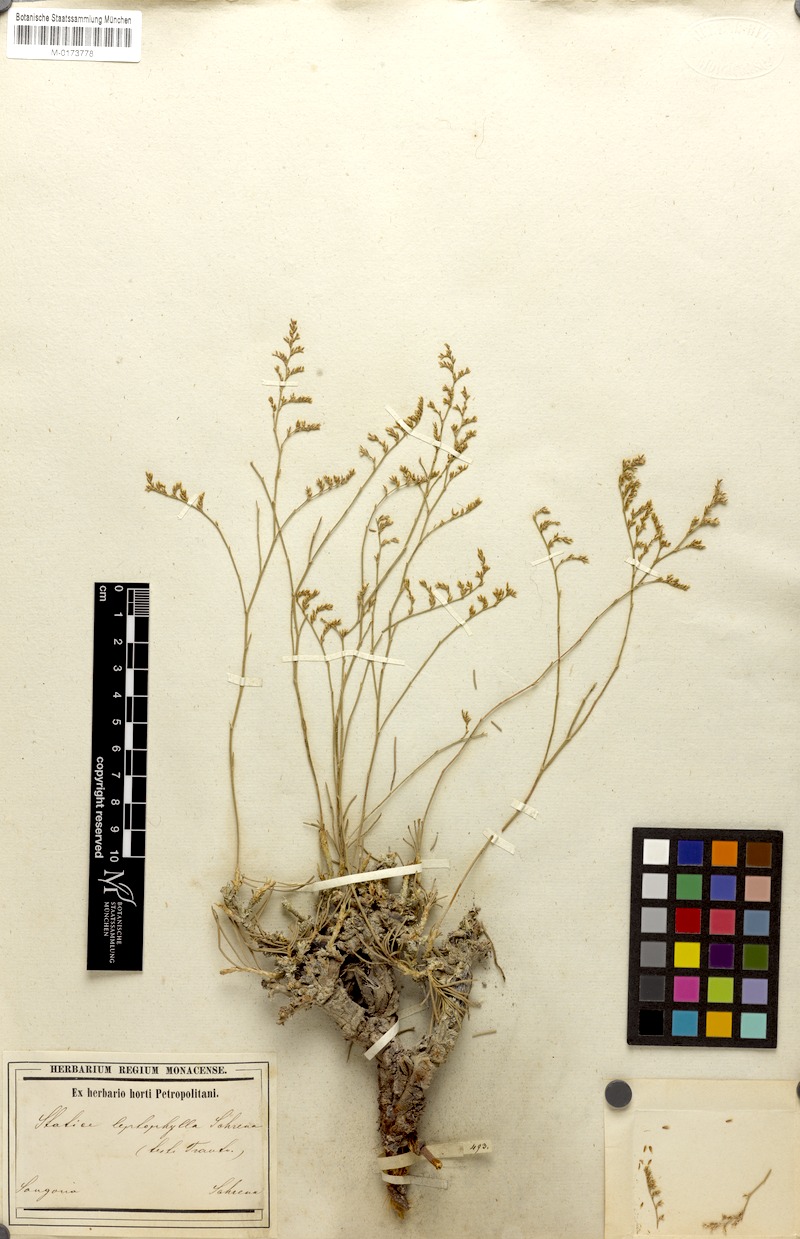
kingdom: Plantae
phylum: Tracheophyta
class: Magnoliopsida
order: Caryophyllales
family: Plumbaginaceae
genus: Limonium
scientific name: Limonium leptophyllum
